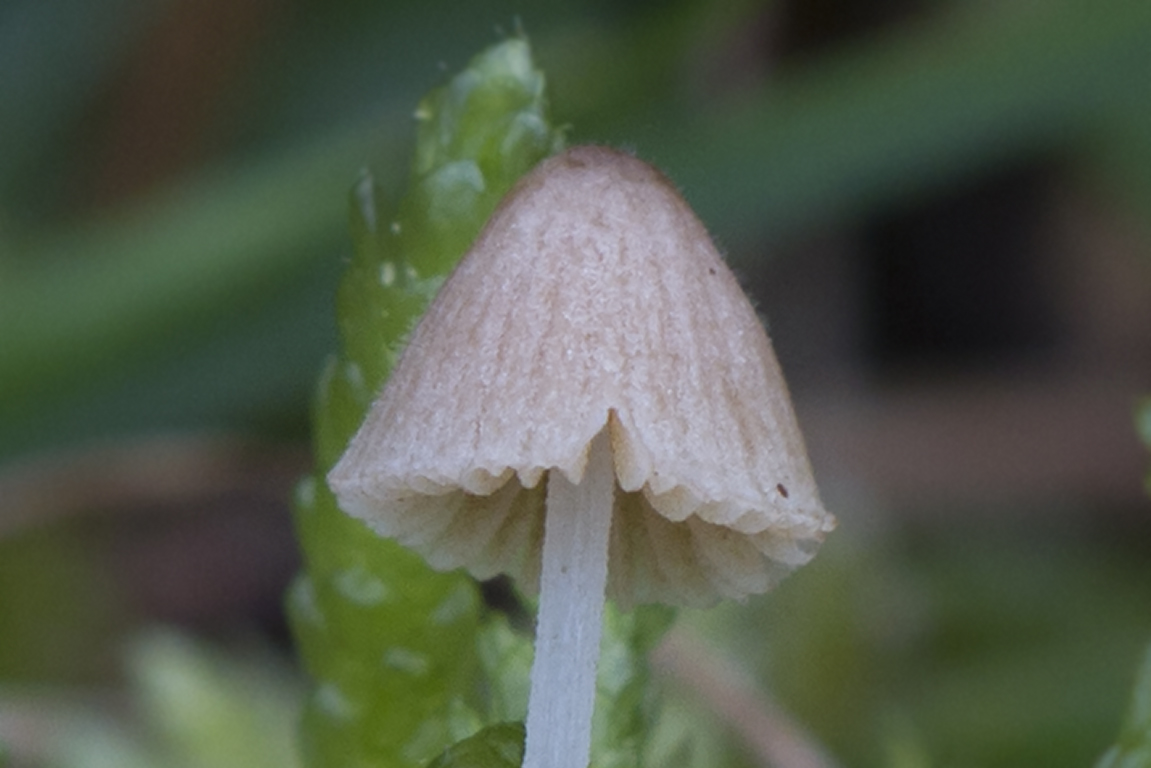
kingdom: Fungi
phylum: Basidiomycota
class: Agaricomycetes
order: Agaricales
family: Bolbitiaceae
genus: Conocybe
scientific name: Conocybe
